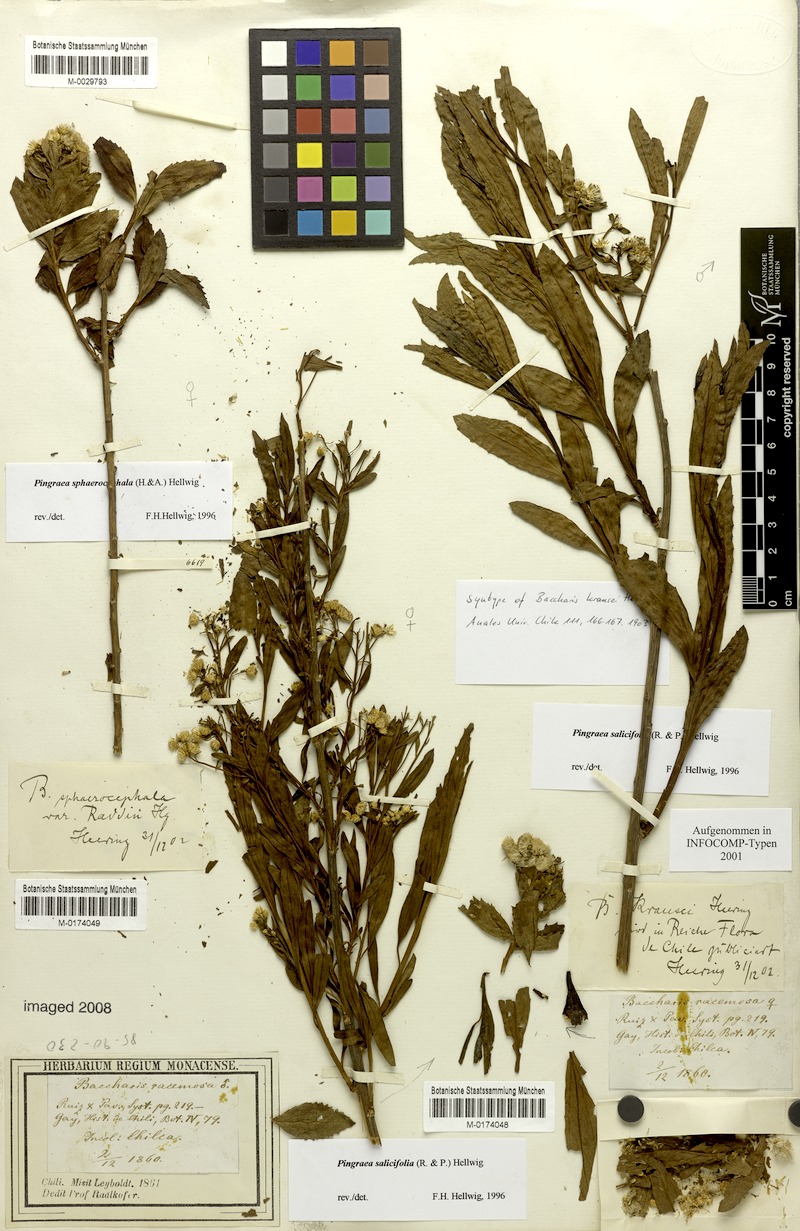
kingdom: Plantae
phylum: Tracheophyta
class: Magnoliopsida
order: Asterales
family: Asteraceae
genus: Baccharis
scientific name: Baccharis sphaerocephala
